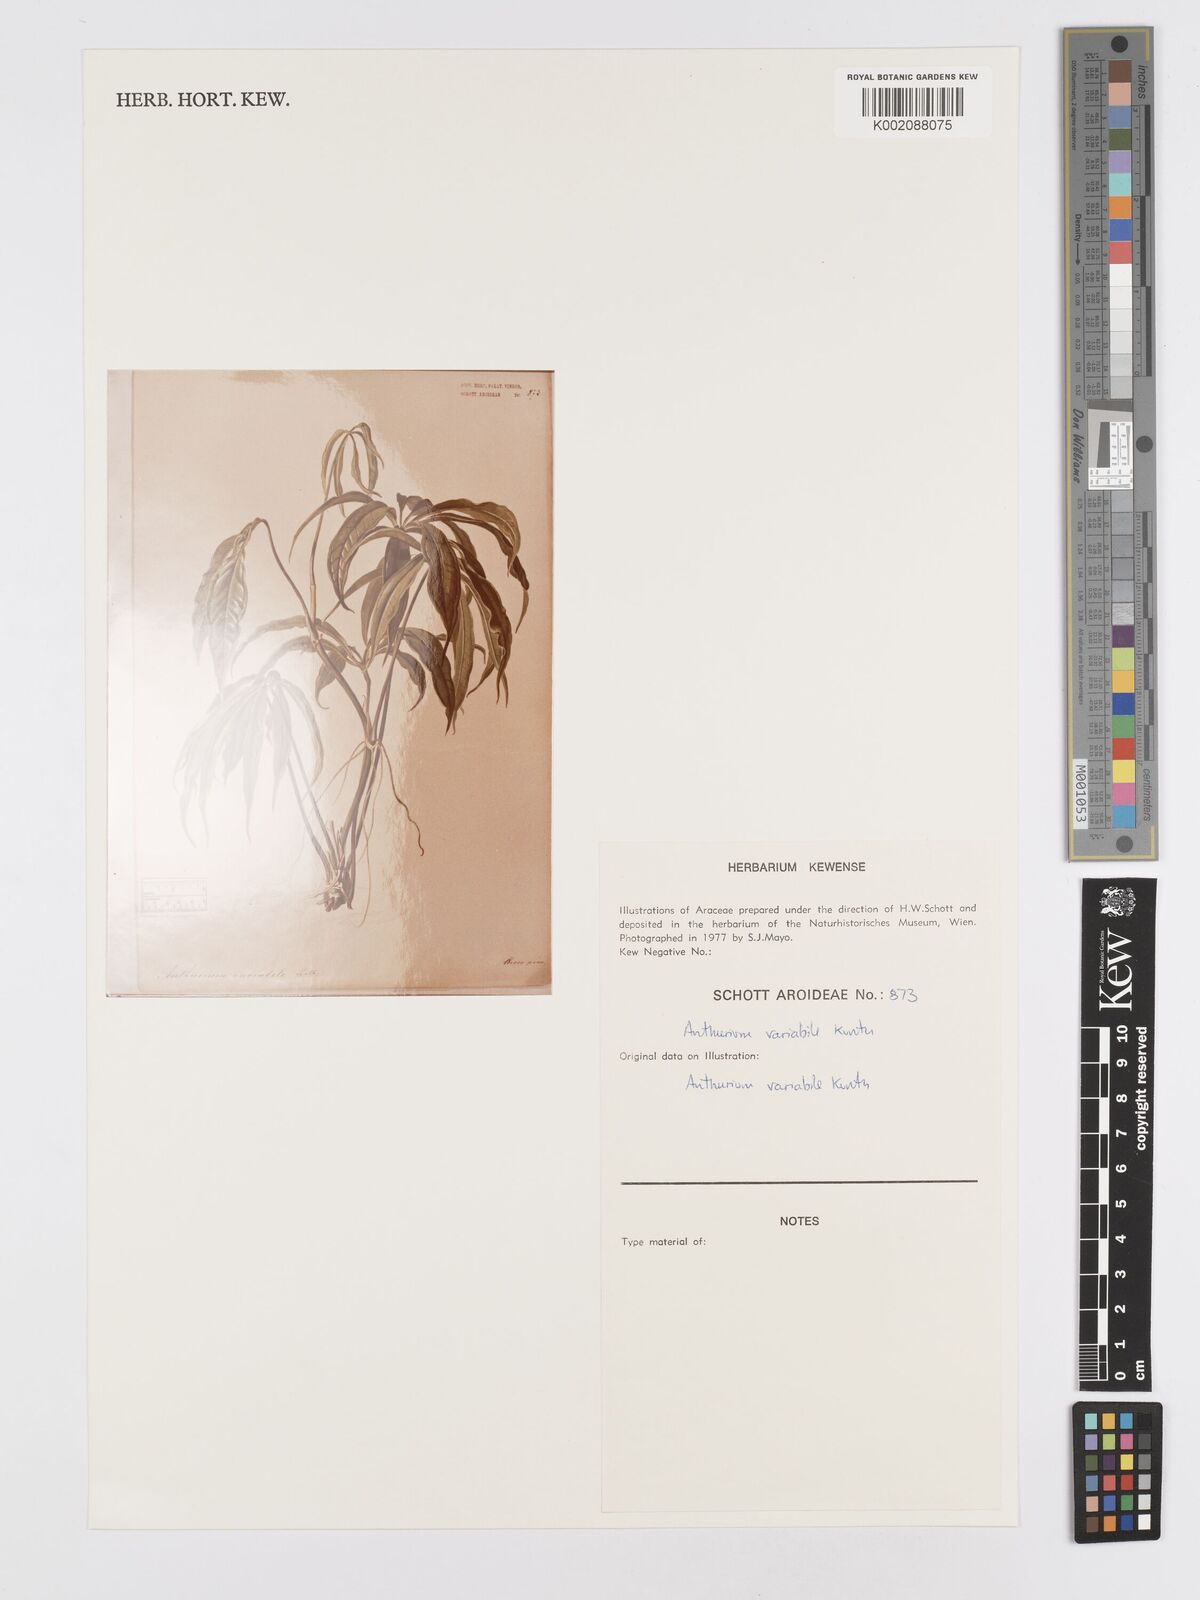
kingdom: Plantae
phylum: Tracheophyta
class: Liliopsida
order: Alismatales
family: Araceae
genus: Anthurium
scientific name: Anthurium pentaphyllum
